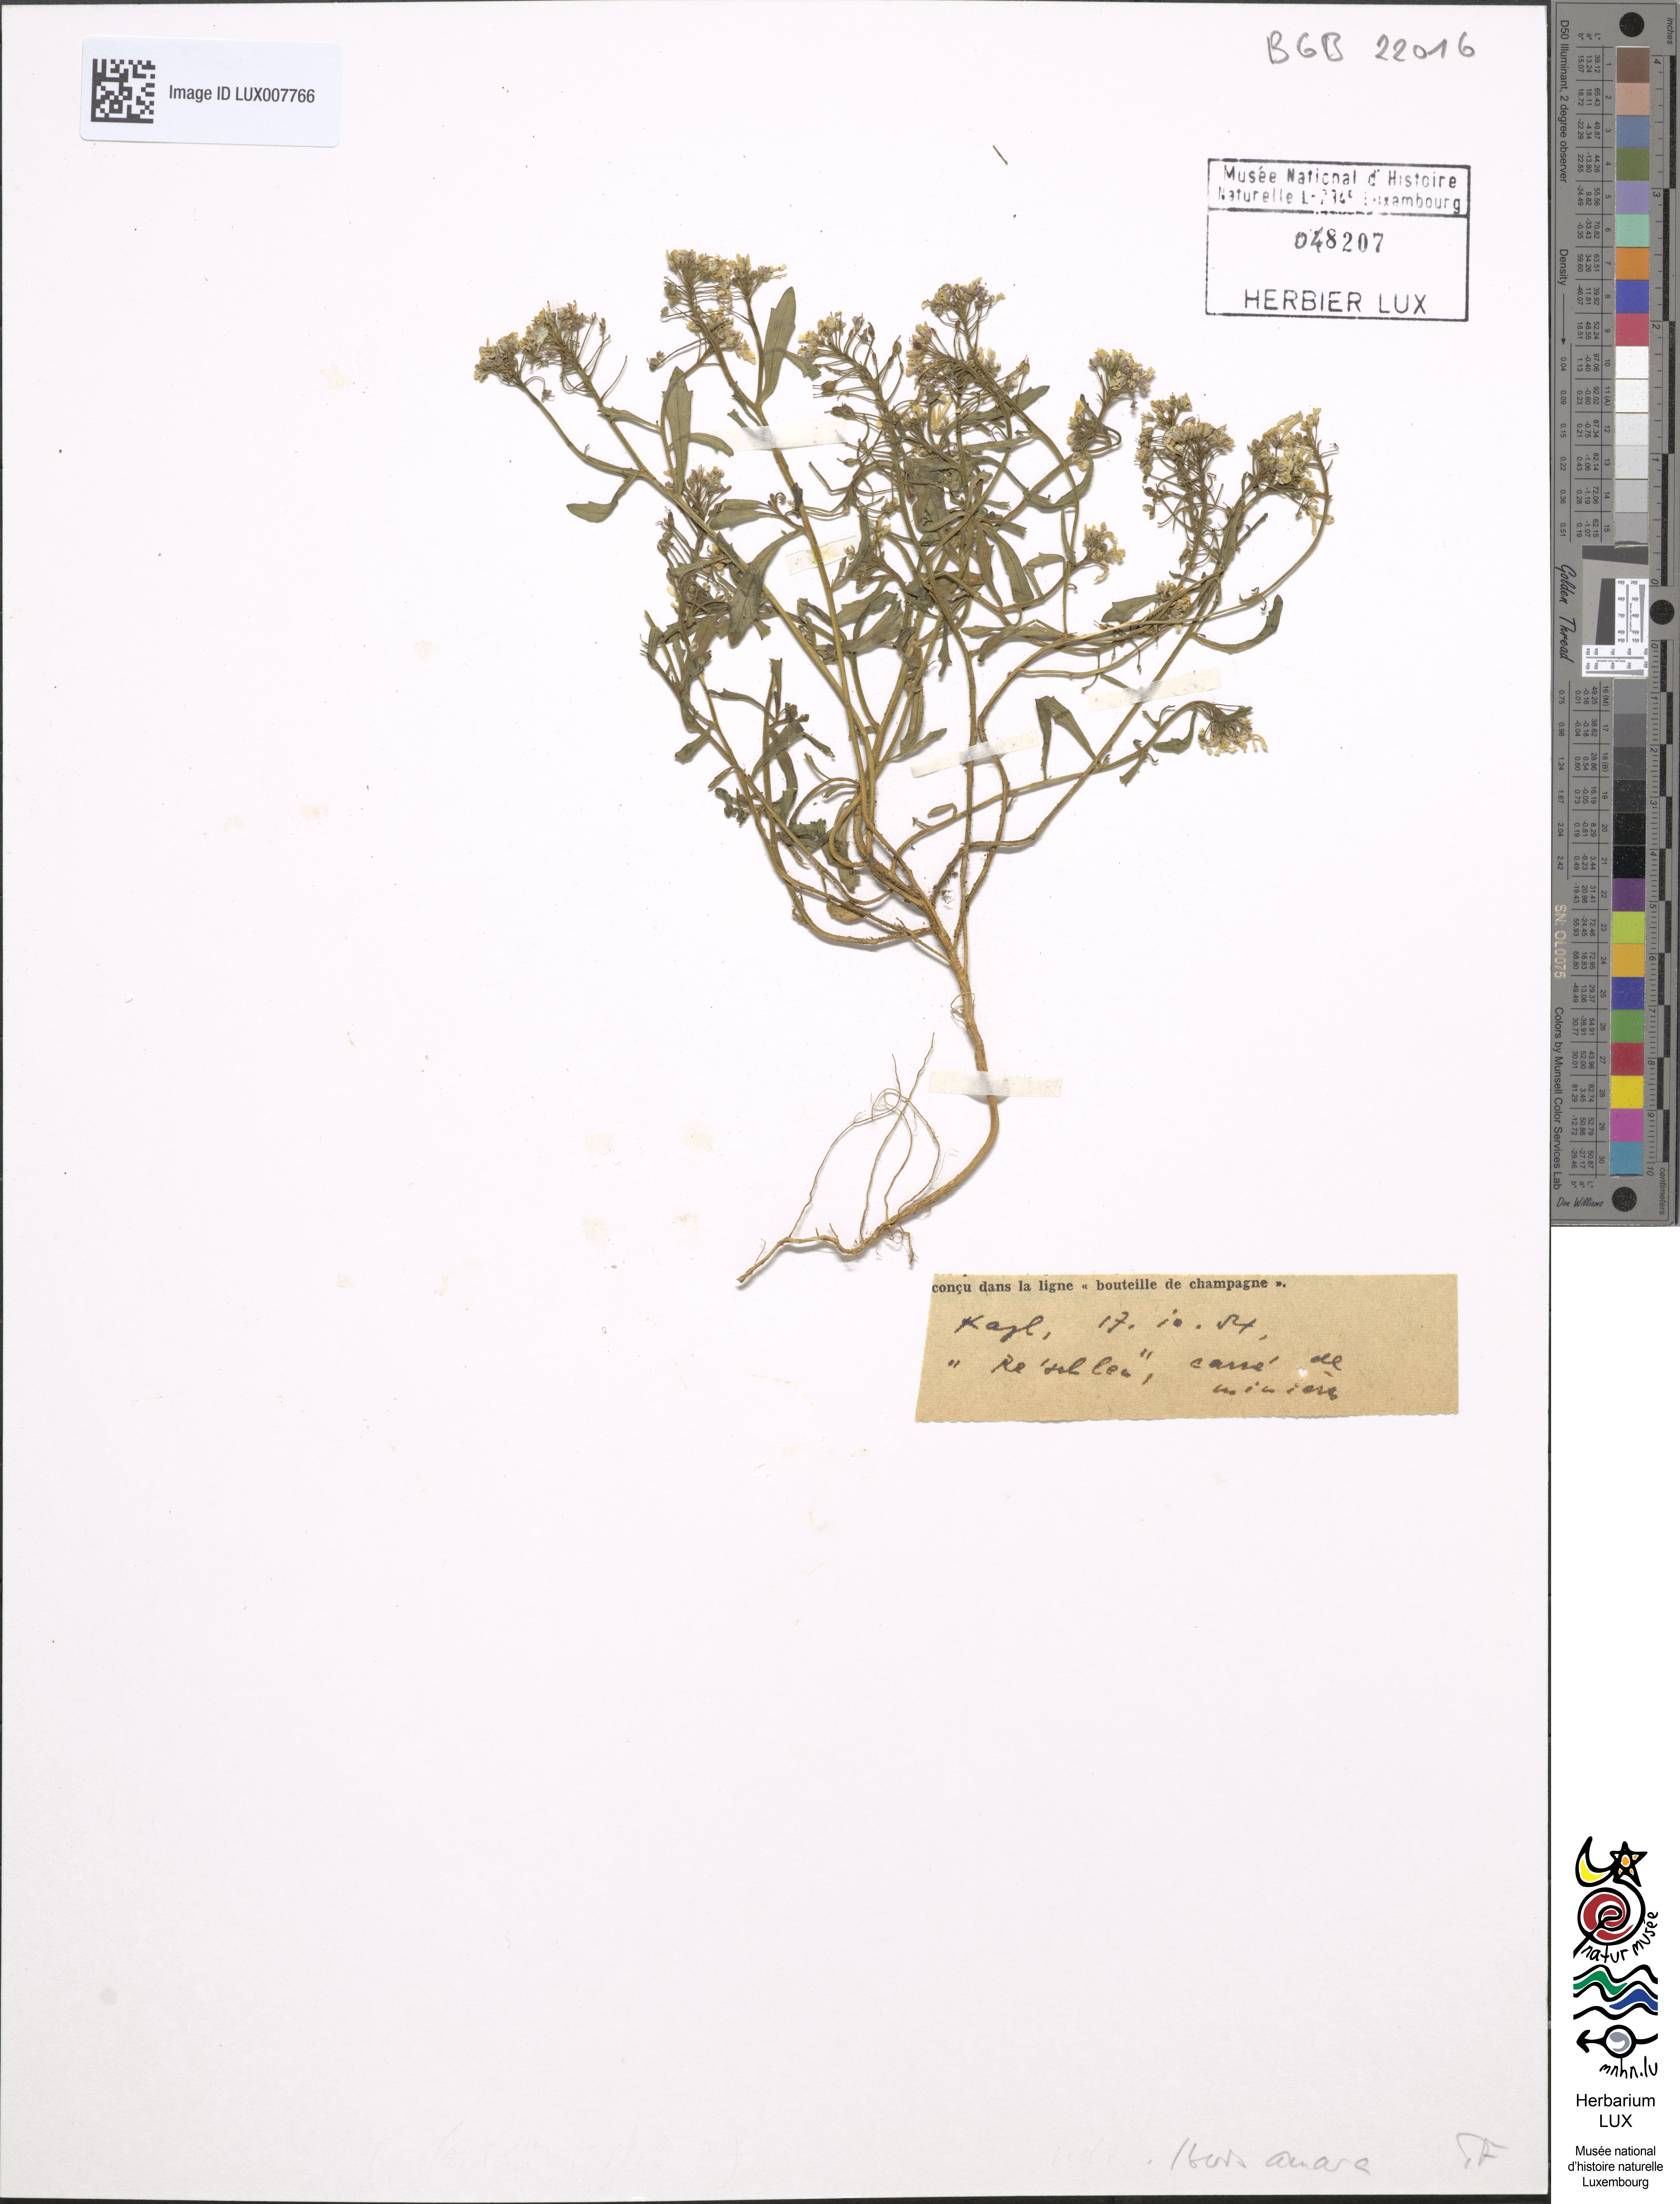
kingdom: Plantae
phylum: Tracheophyta
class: Magnoliopsida
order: Brassicales
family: Brassicaceae
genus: Iberis
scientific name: Iberis amara
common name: Annual candytuft
